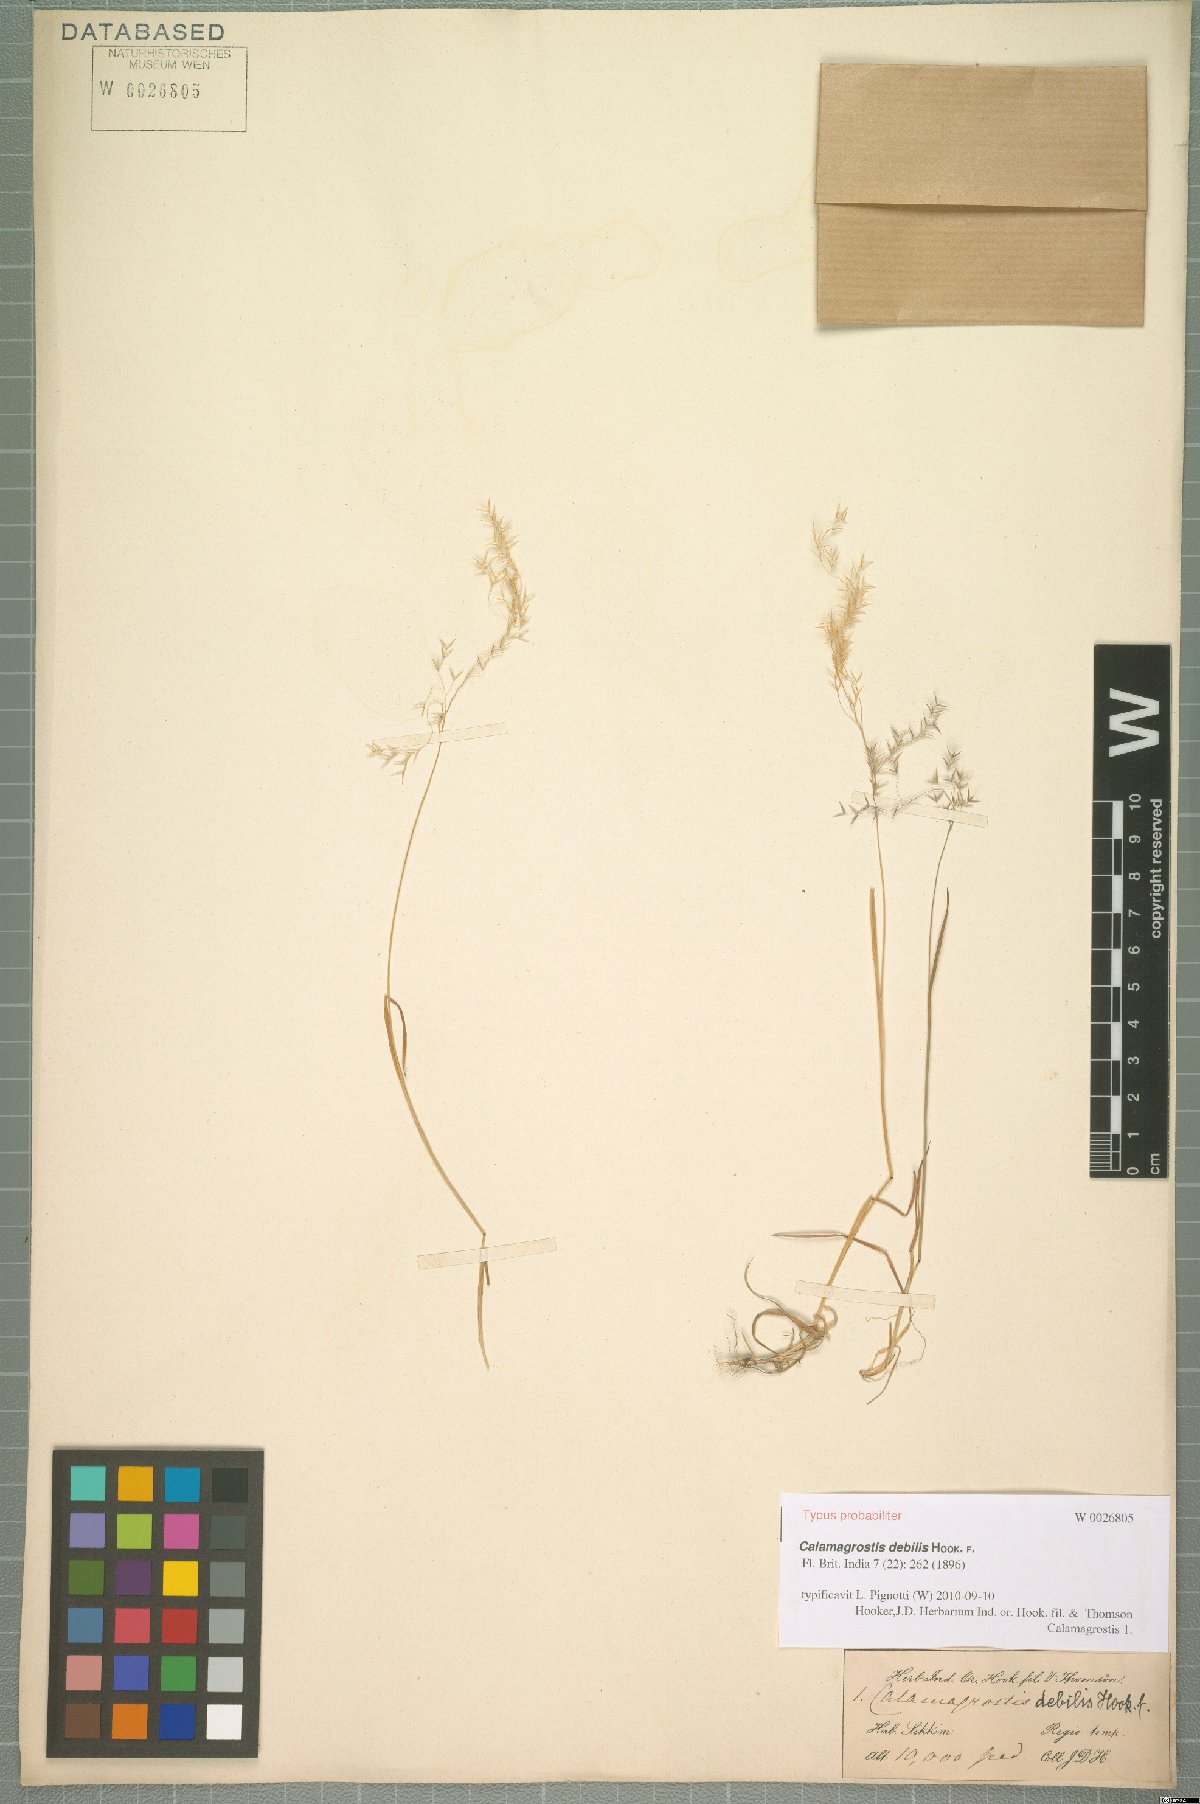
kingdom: Plantae
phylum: Tracheophyta
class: Liliopsida
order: Poales
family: Poaceae
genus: Calamagrostis
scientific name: Calamagrostis debilis
